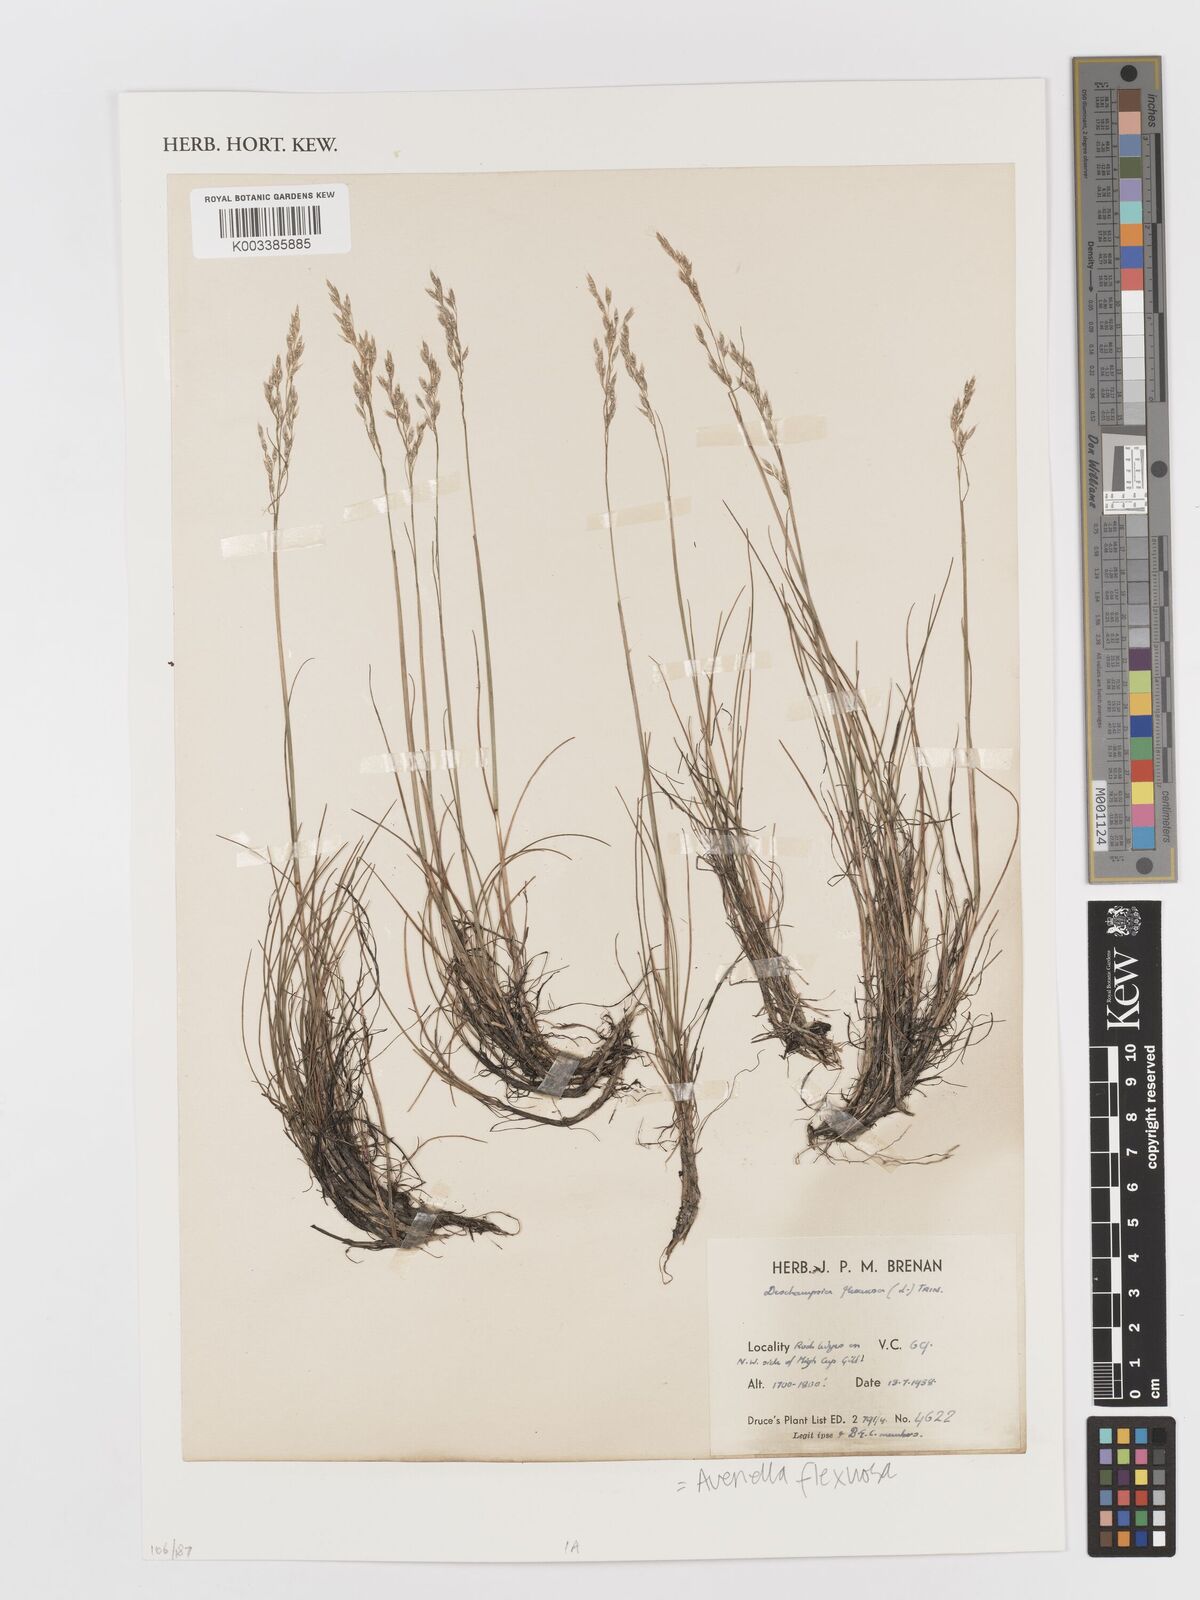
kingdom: Plantae
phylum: Tracheophyta
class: Liliopsida
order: Poales
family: Poaceae
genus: Avenella
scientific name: Avenella flexuosa
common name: Wavy hairgrass
